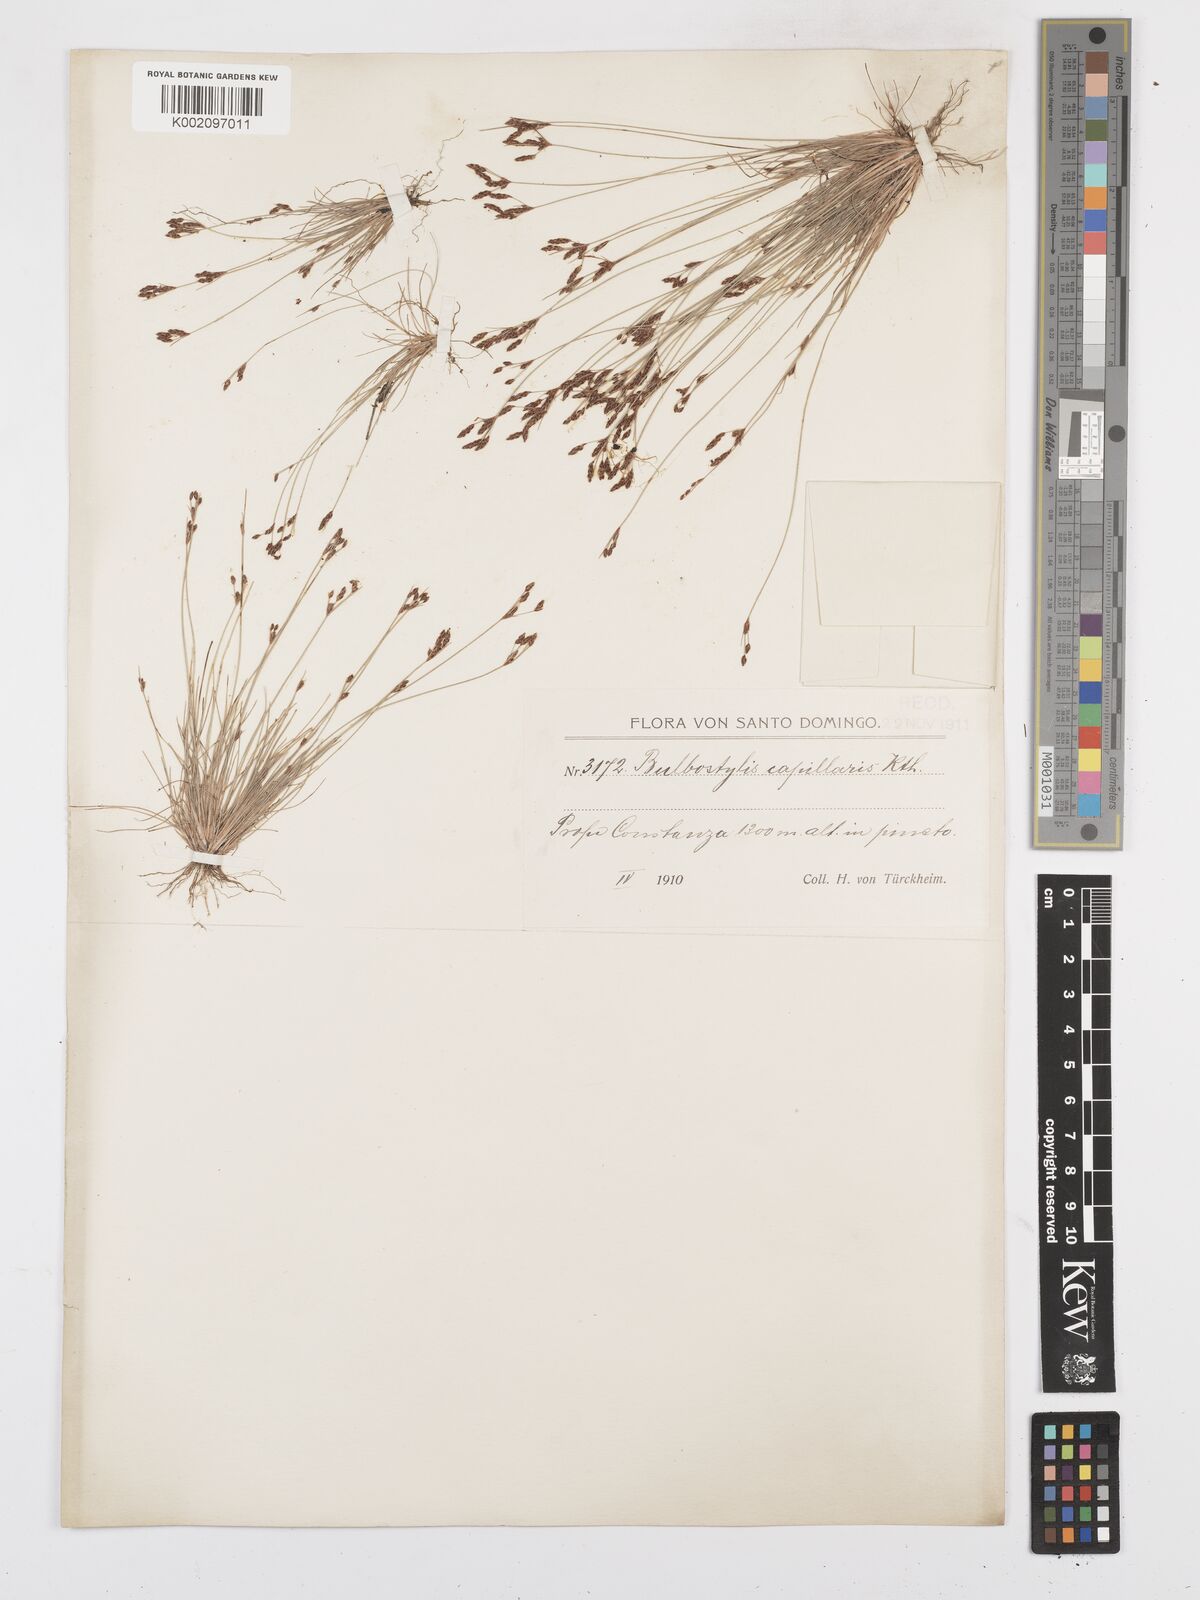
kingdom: Plantae
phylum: Tracheophyta
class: Liliopsida
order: Poales
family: Cyperaceae
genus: Bulbostylis
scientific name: Bulbostylis capillaris
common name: Densetuft hairsedge
